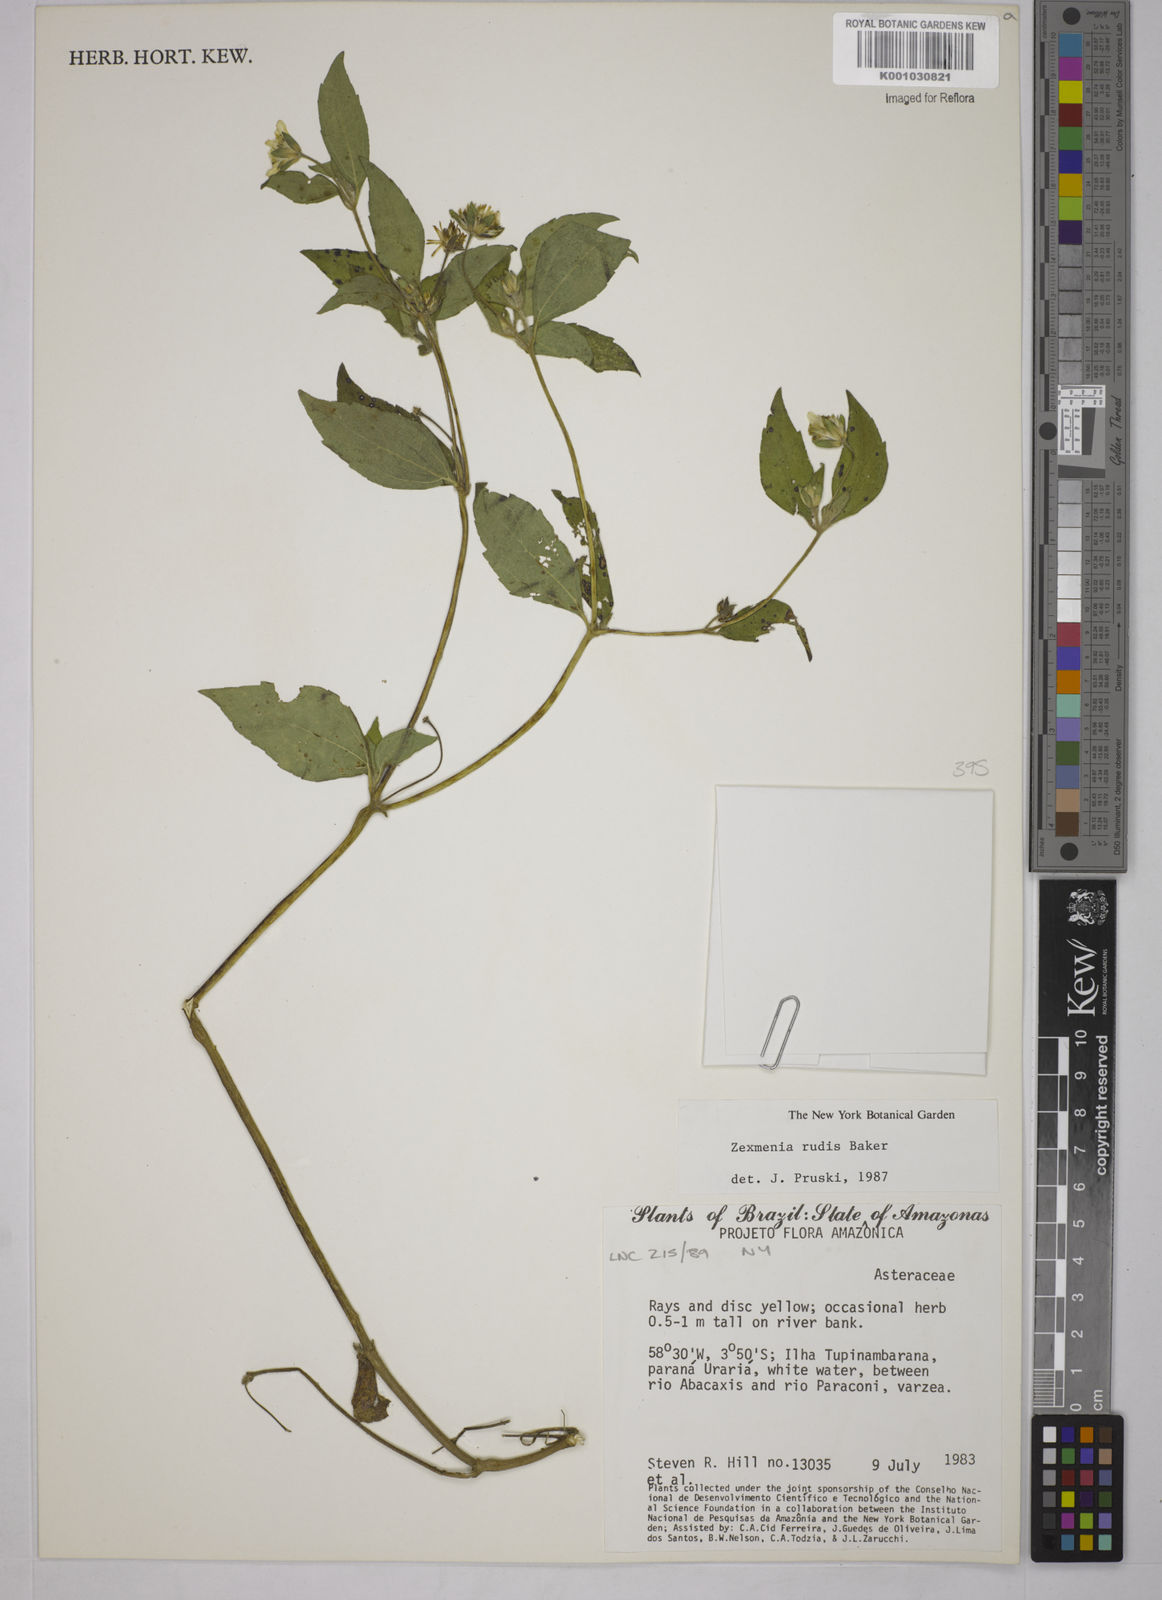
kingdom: Plantae
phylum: Tracheophyta
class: Magnoliopsida
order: Asterales
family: Asteraceae
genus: Wedelia
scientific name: Wedelia rudis
